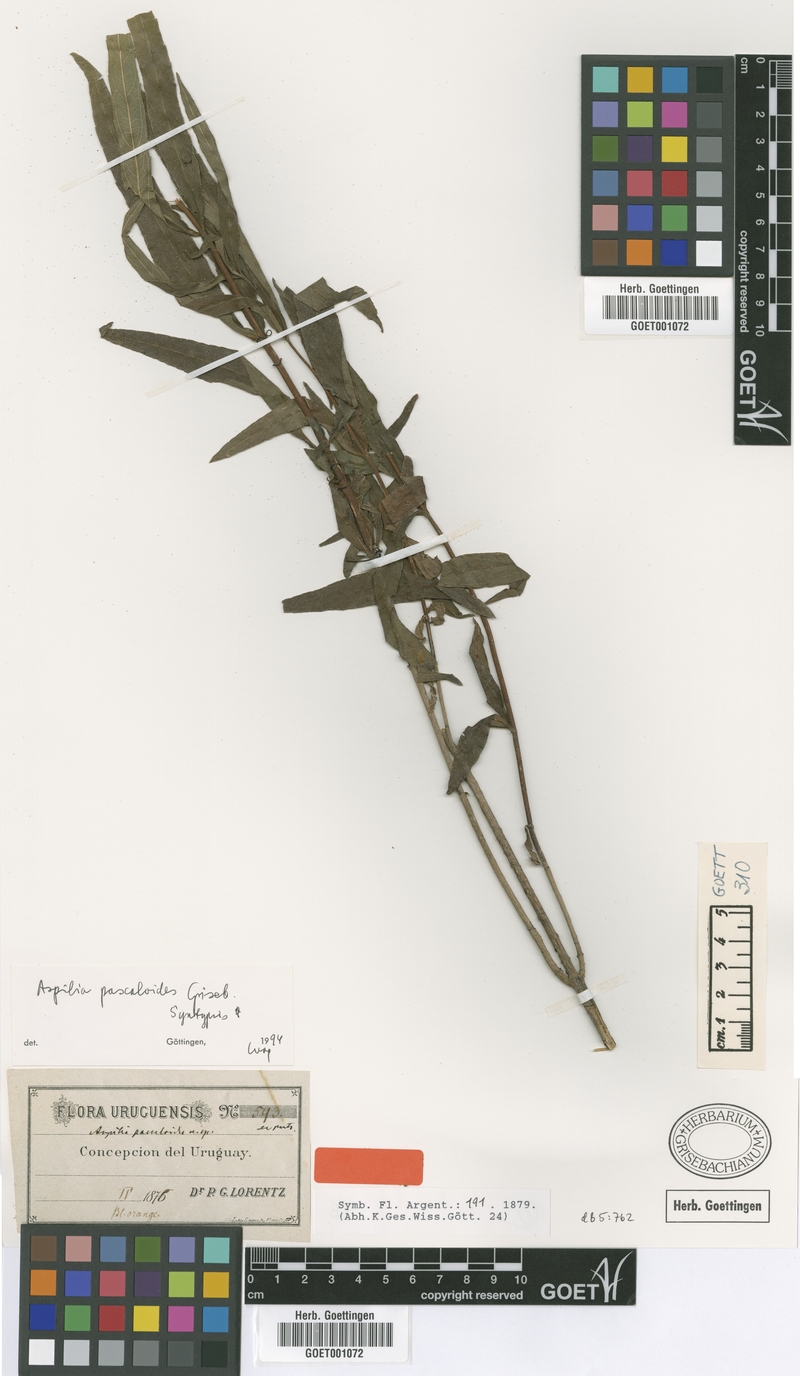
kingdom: Plantae
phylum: Tracheophyta
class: Magnoliopsida
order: Asterales
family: Asteraceae
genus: Wedelia
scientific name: Wedelia pascalioides
